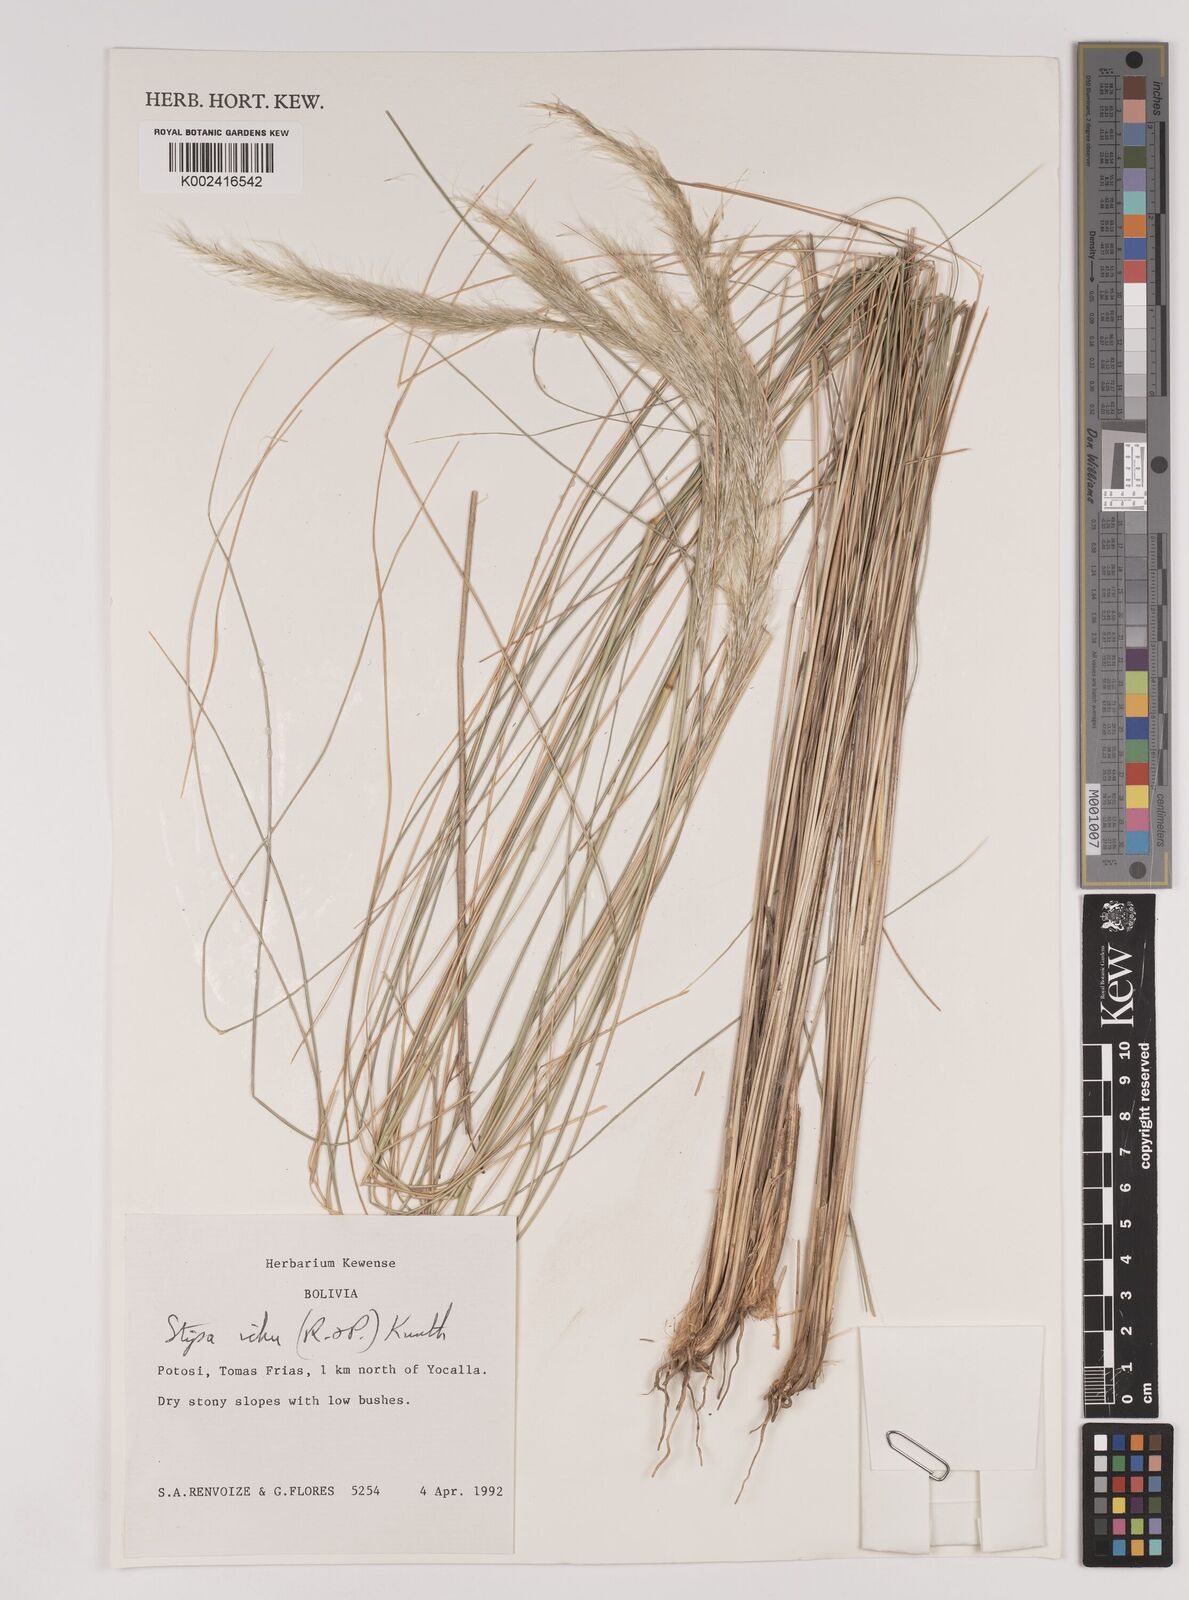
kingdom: Plantae
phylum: Tracheophyta
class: Liliopsida
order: Poales
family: Poaceae
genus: Jarava
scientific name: Jarava ichu
